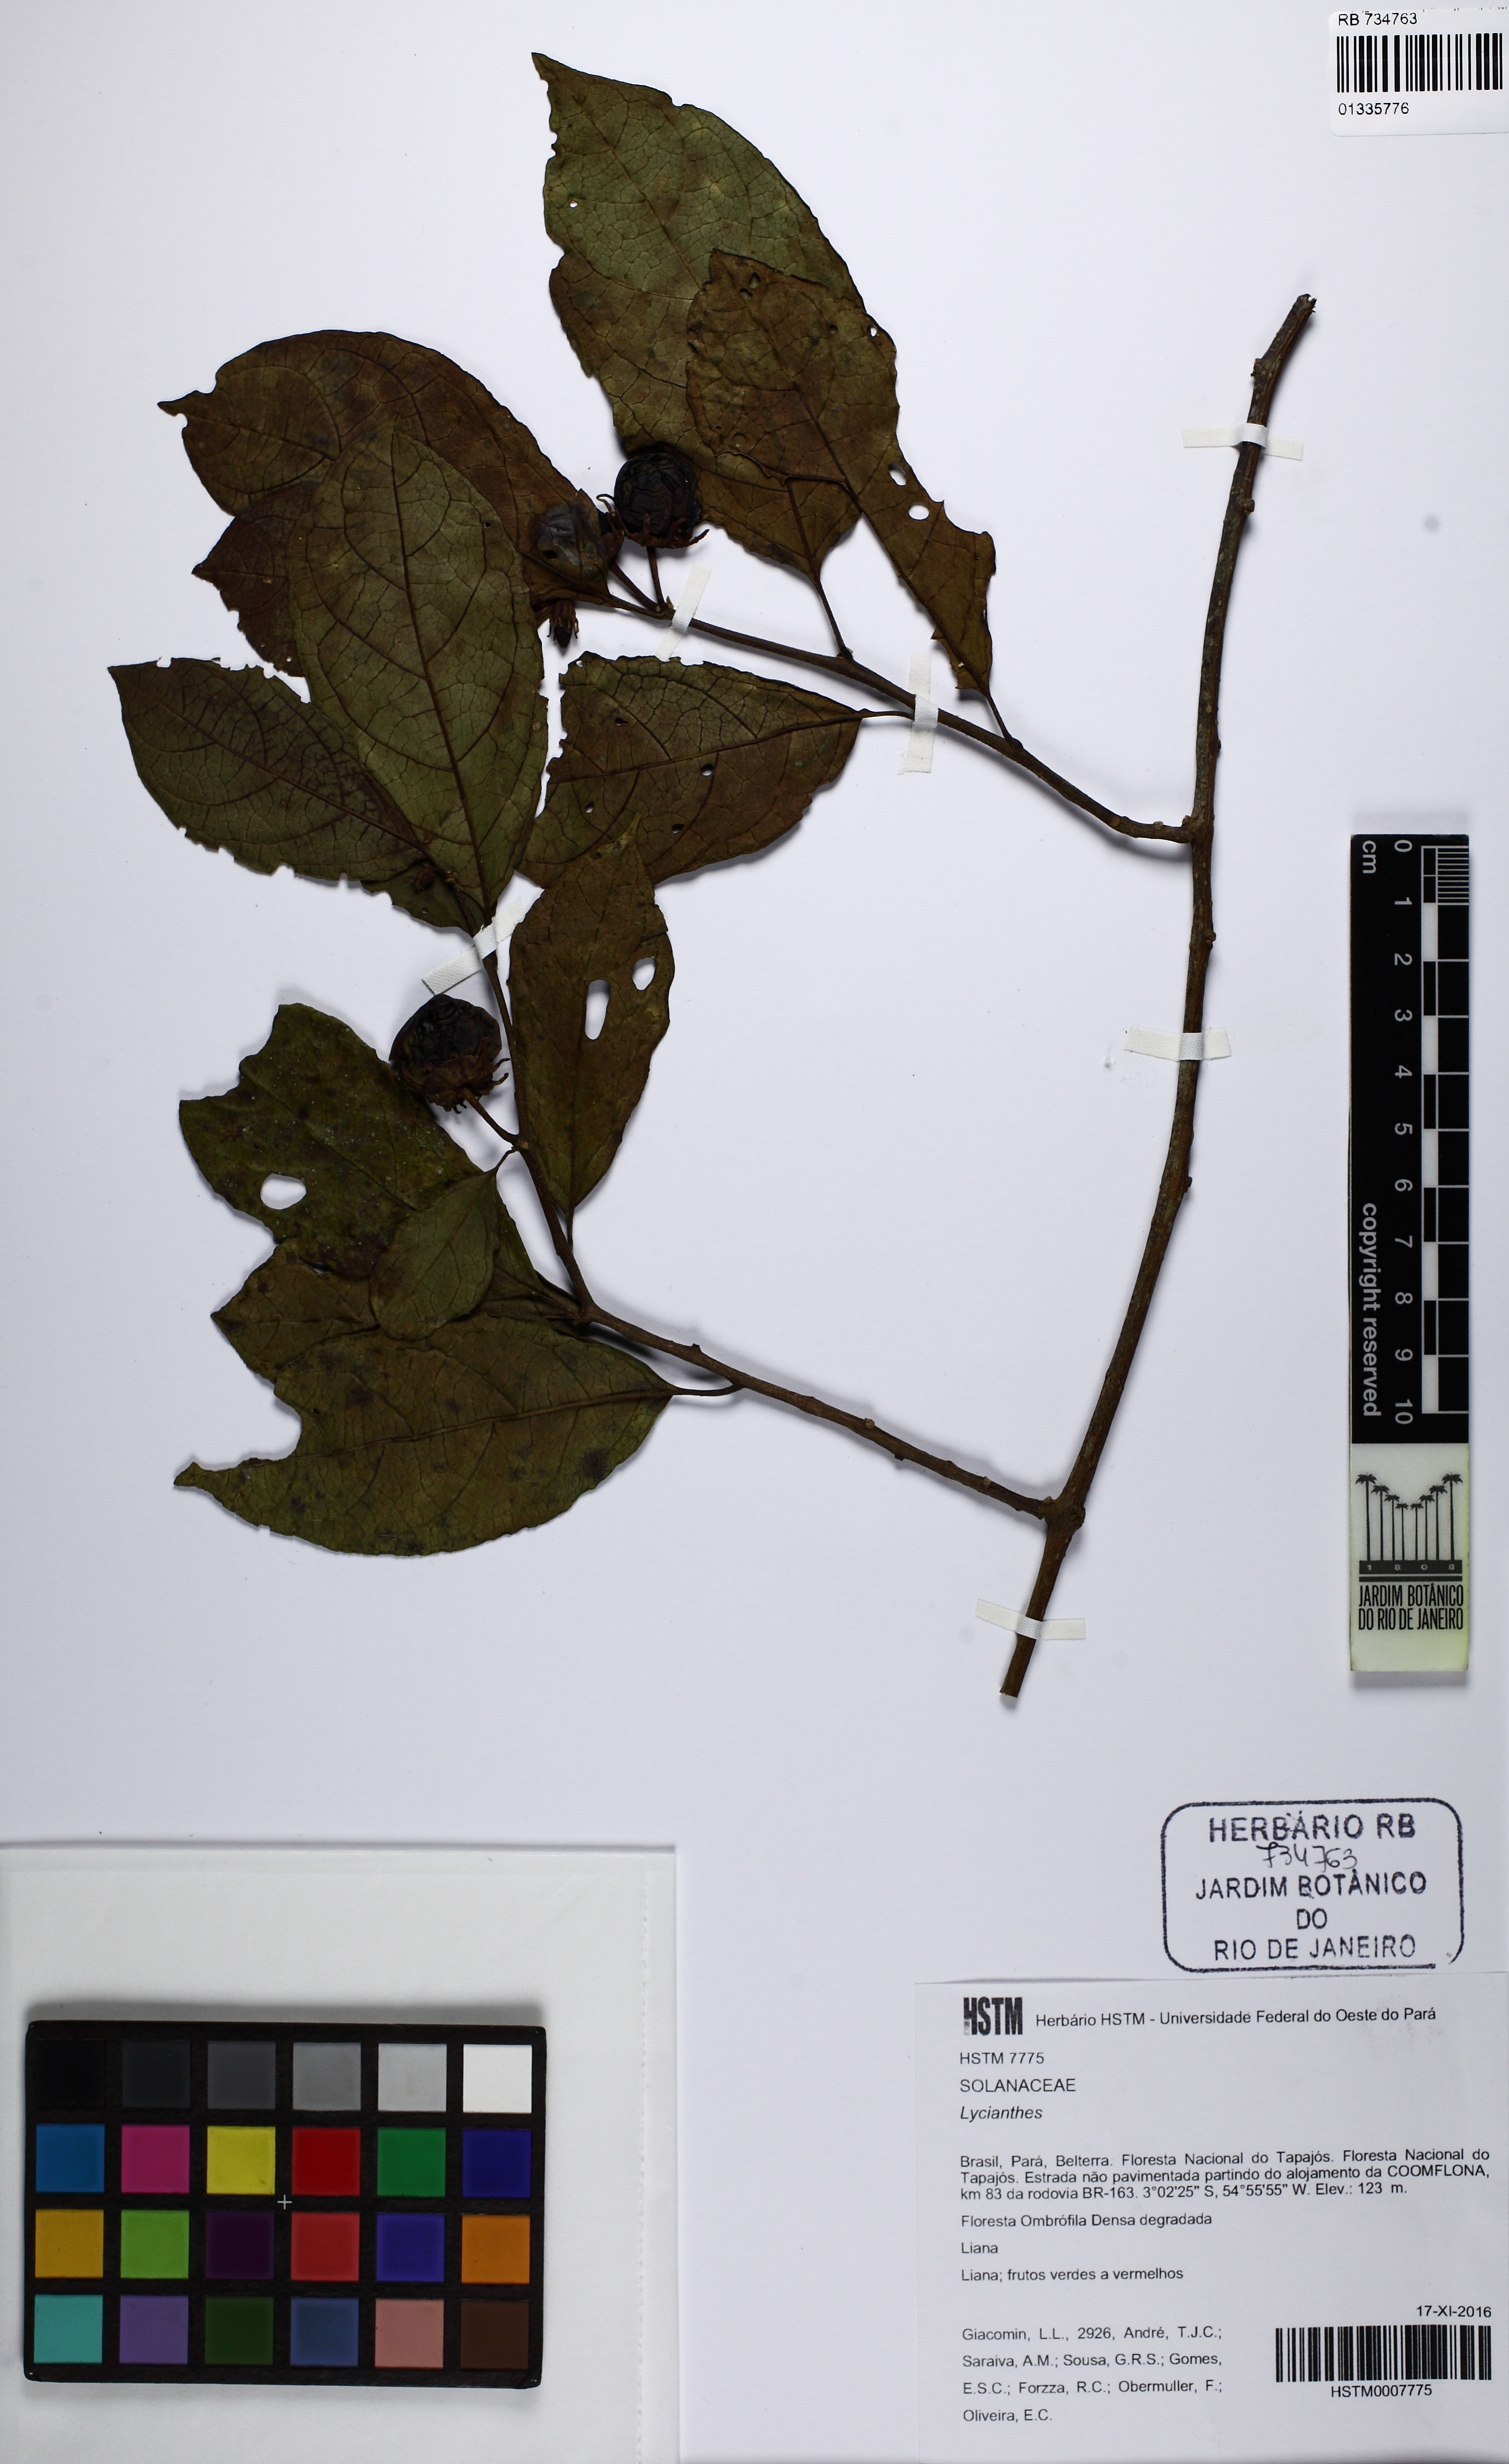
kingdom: Plantae
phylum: Tracheophyta
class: Magnoliopsida
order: Solanales
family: Solanaceae
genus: Lycianthes
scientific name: Lycianthes glandulosa
